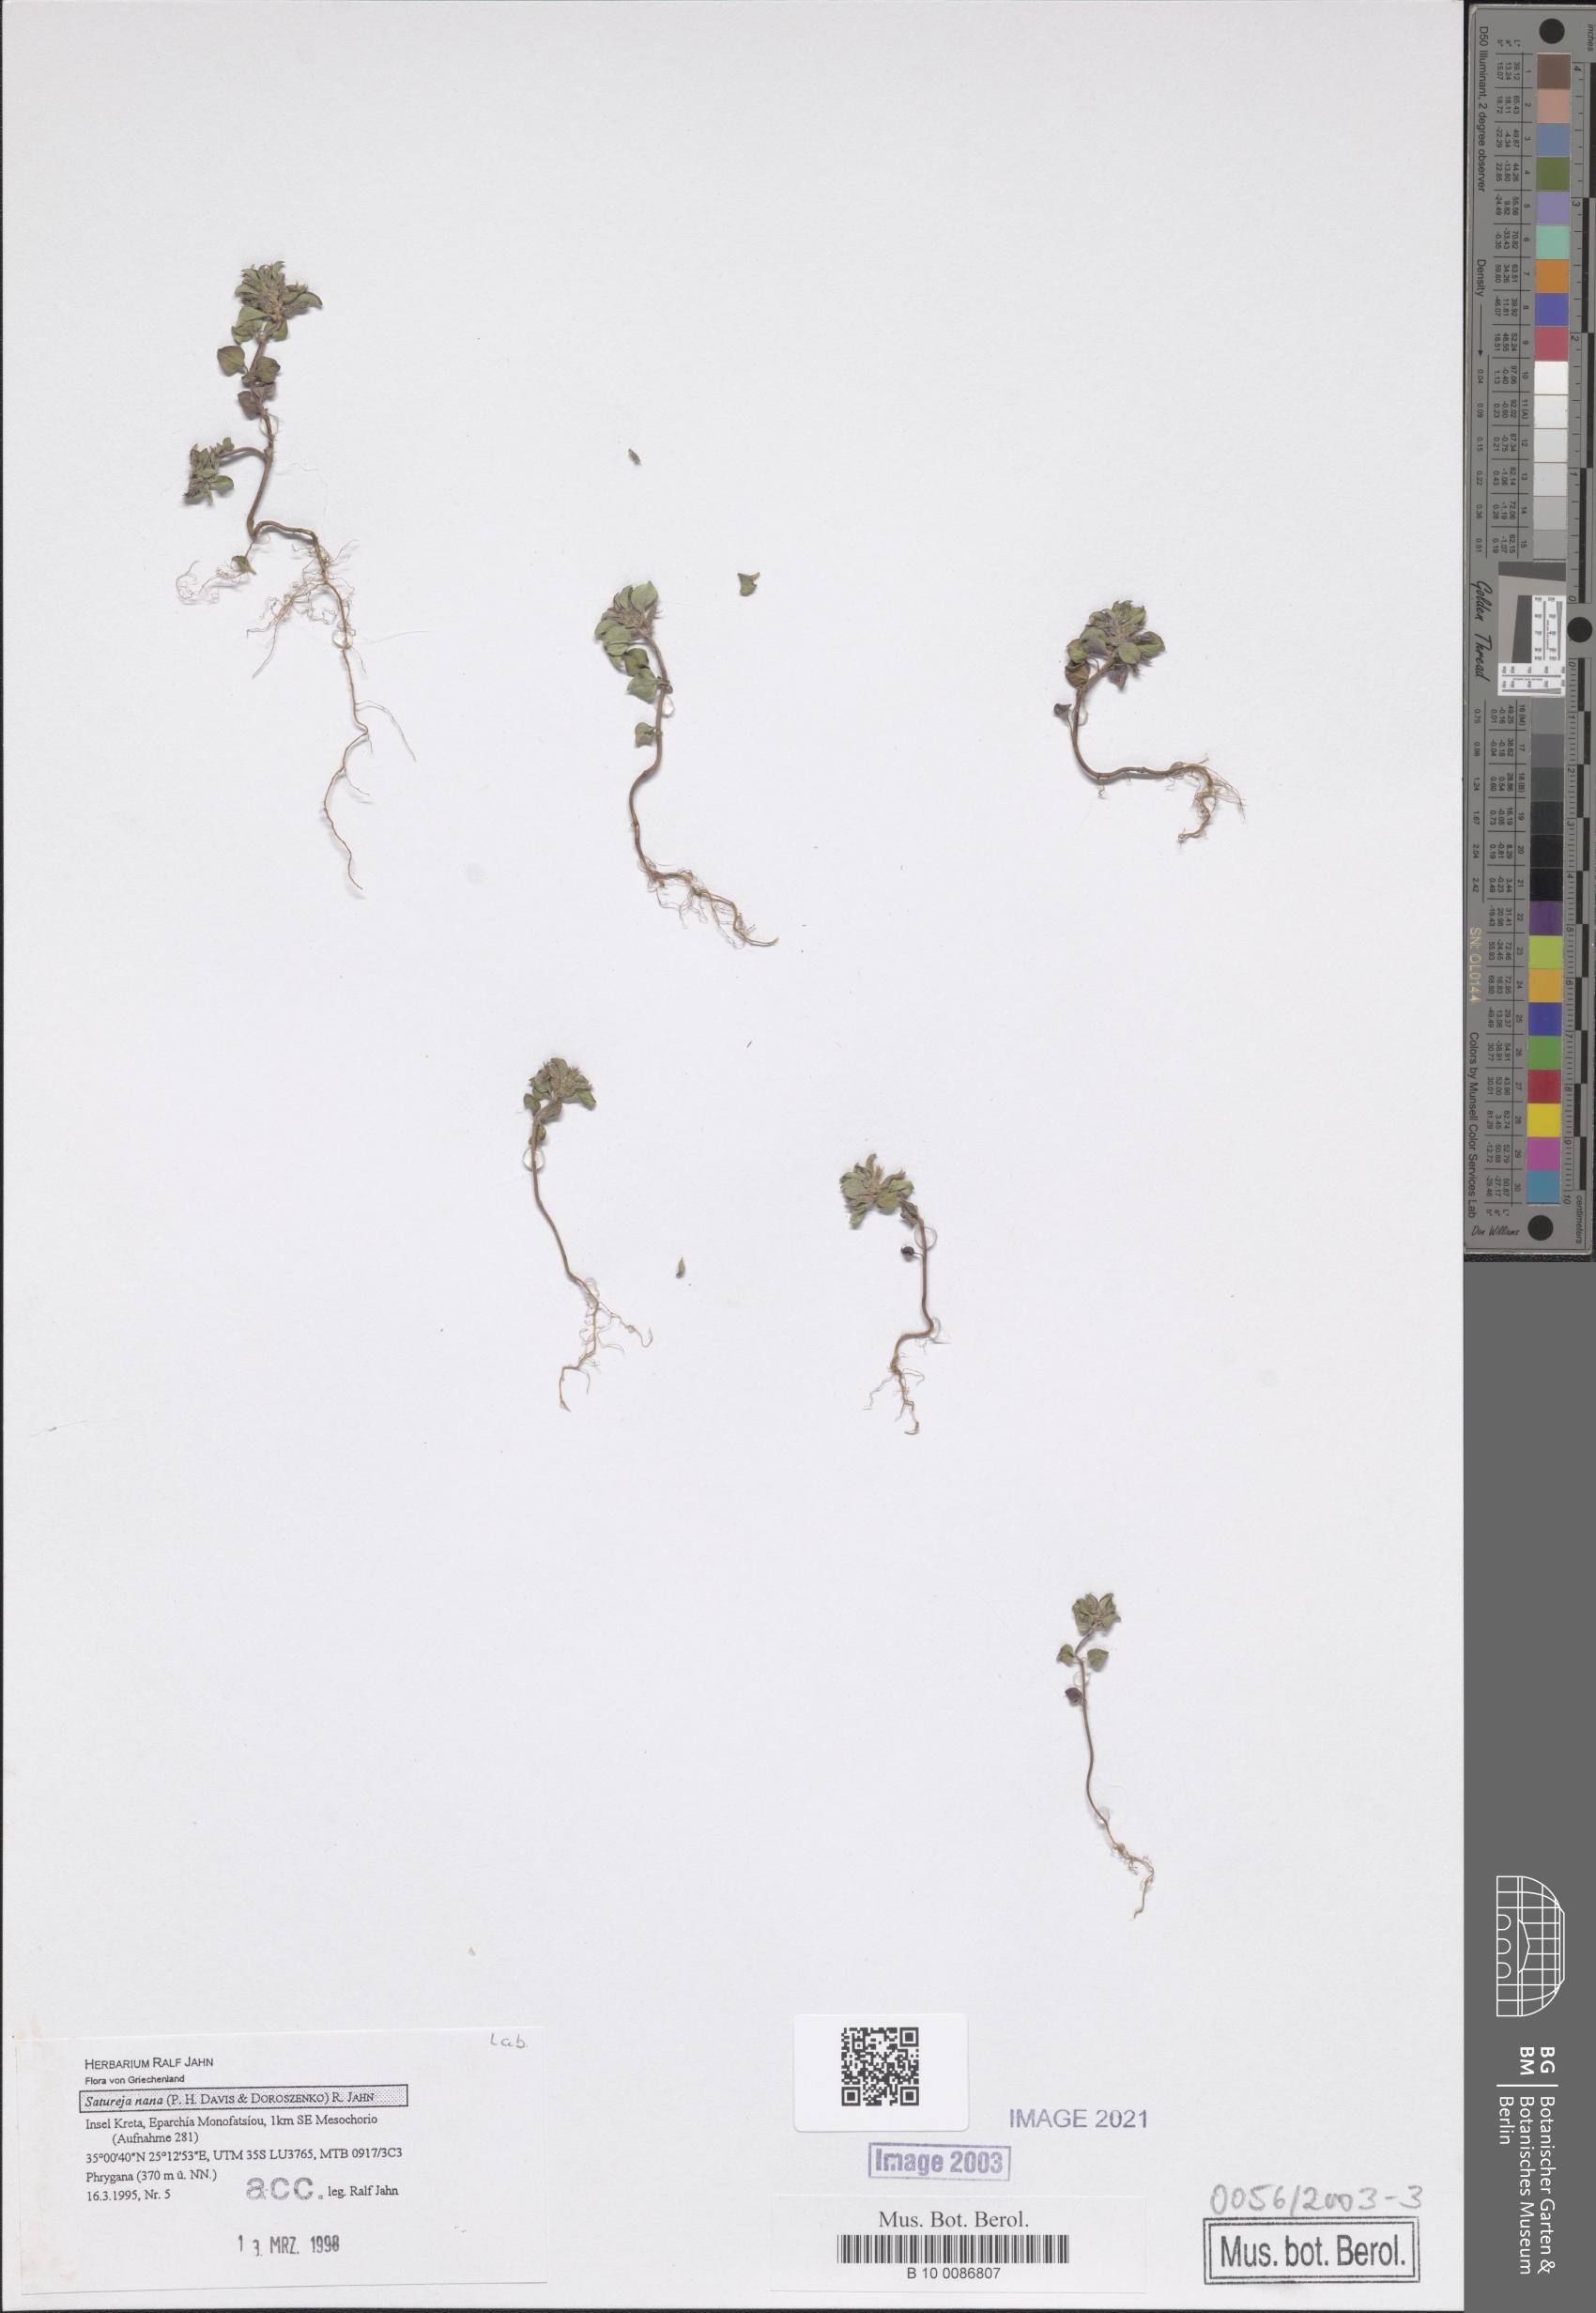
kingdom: Plantae
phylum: Tracheophyta
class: Magnoliopsida
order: Lamiales
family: Lamiaceae
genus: Clinopodium
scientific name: Clinopodium nanum
